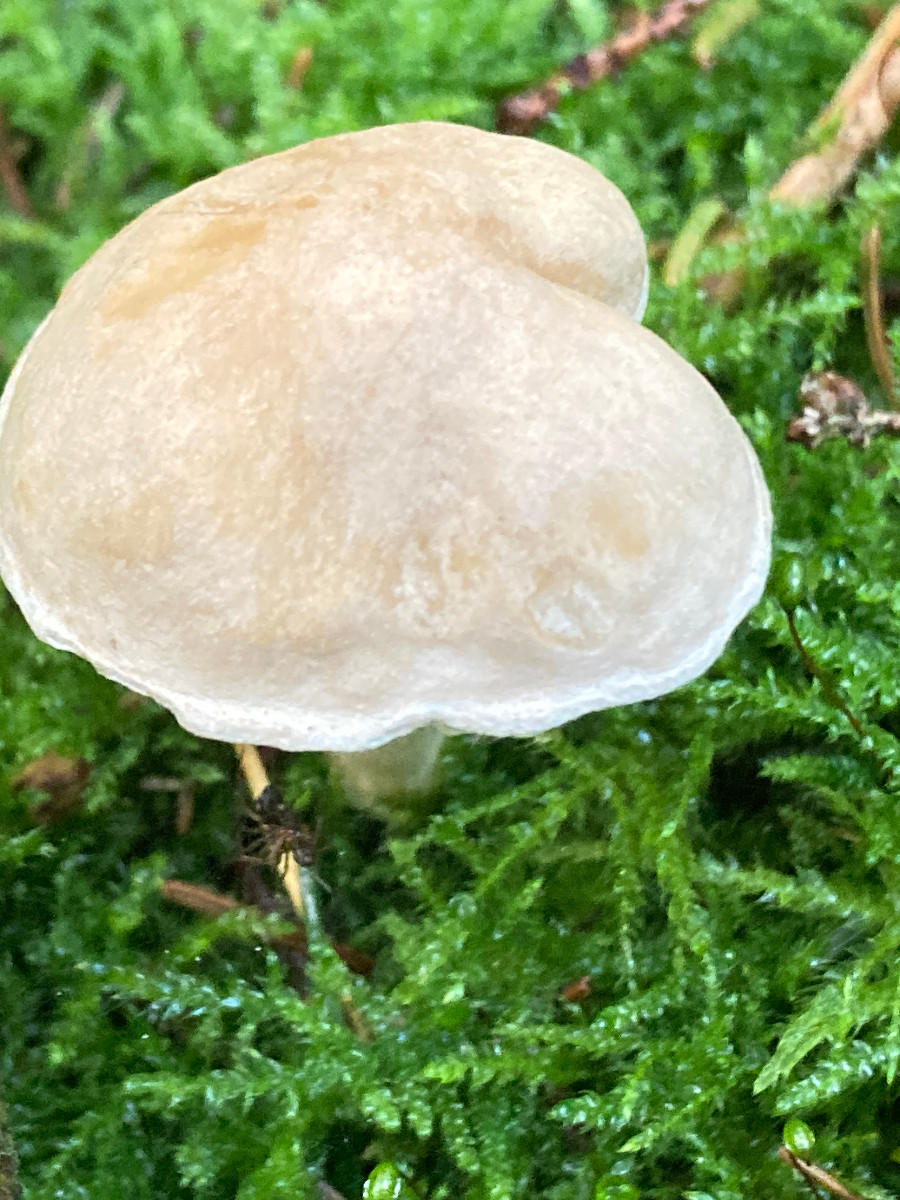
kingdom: Fungi
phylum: Basidiomycota
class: Agaricomycetes
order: Agaricales
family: Tricholomataceae
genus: Tricholoma
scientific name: Tricholoma inamoenum
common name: højstokket ridderhat
